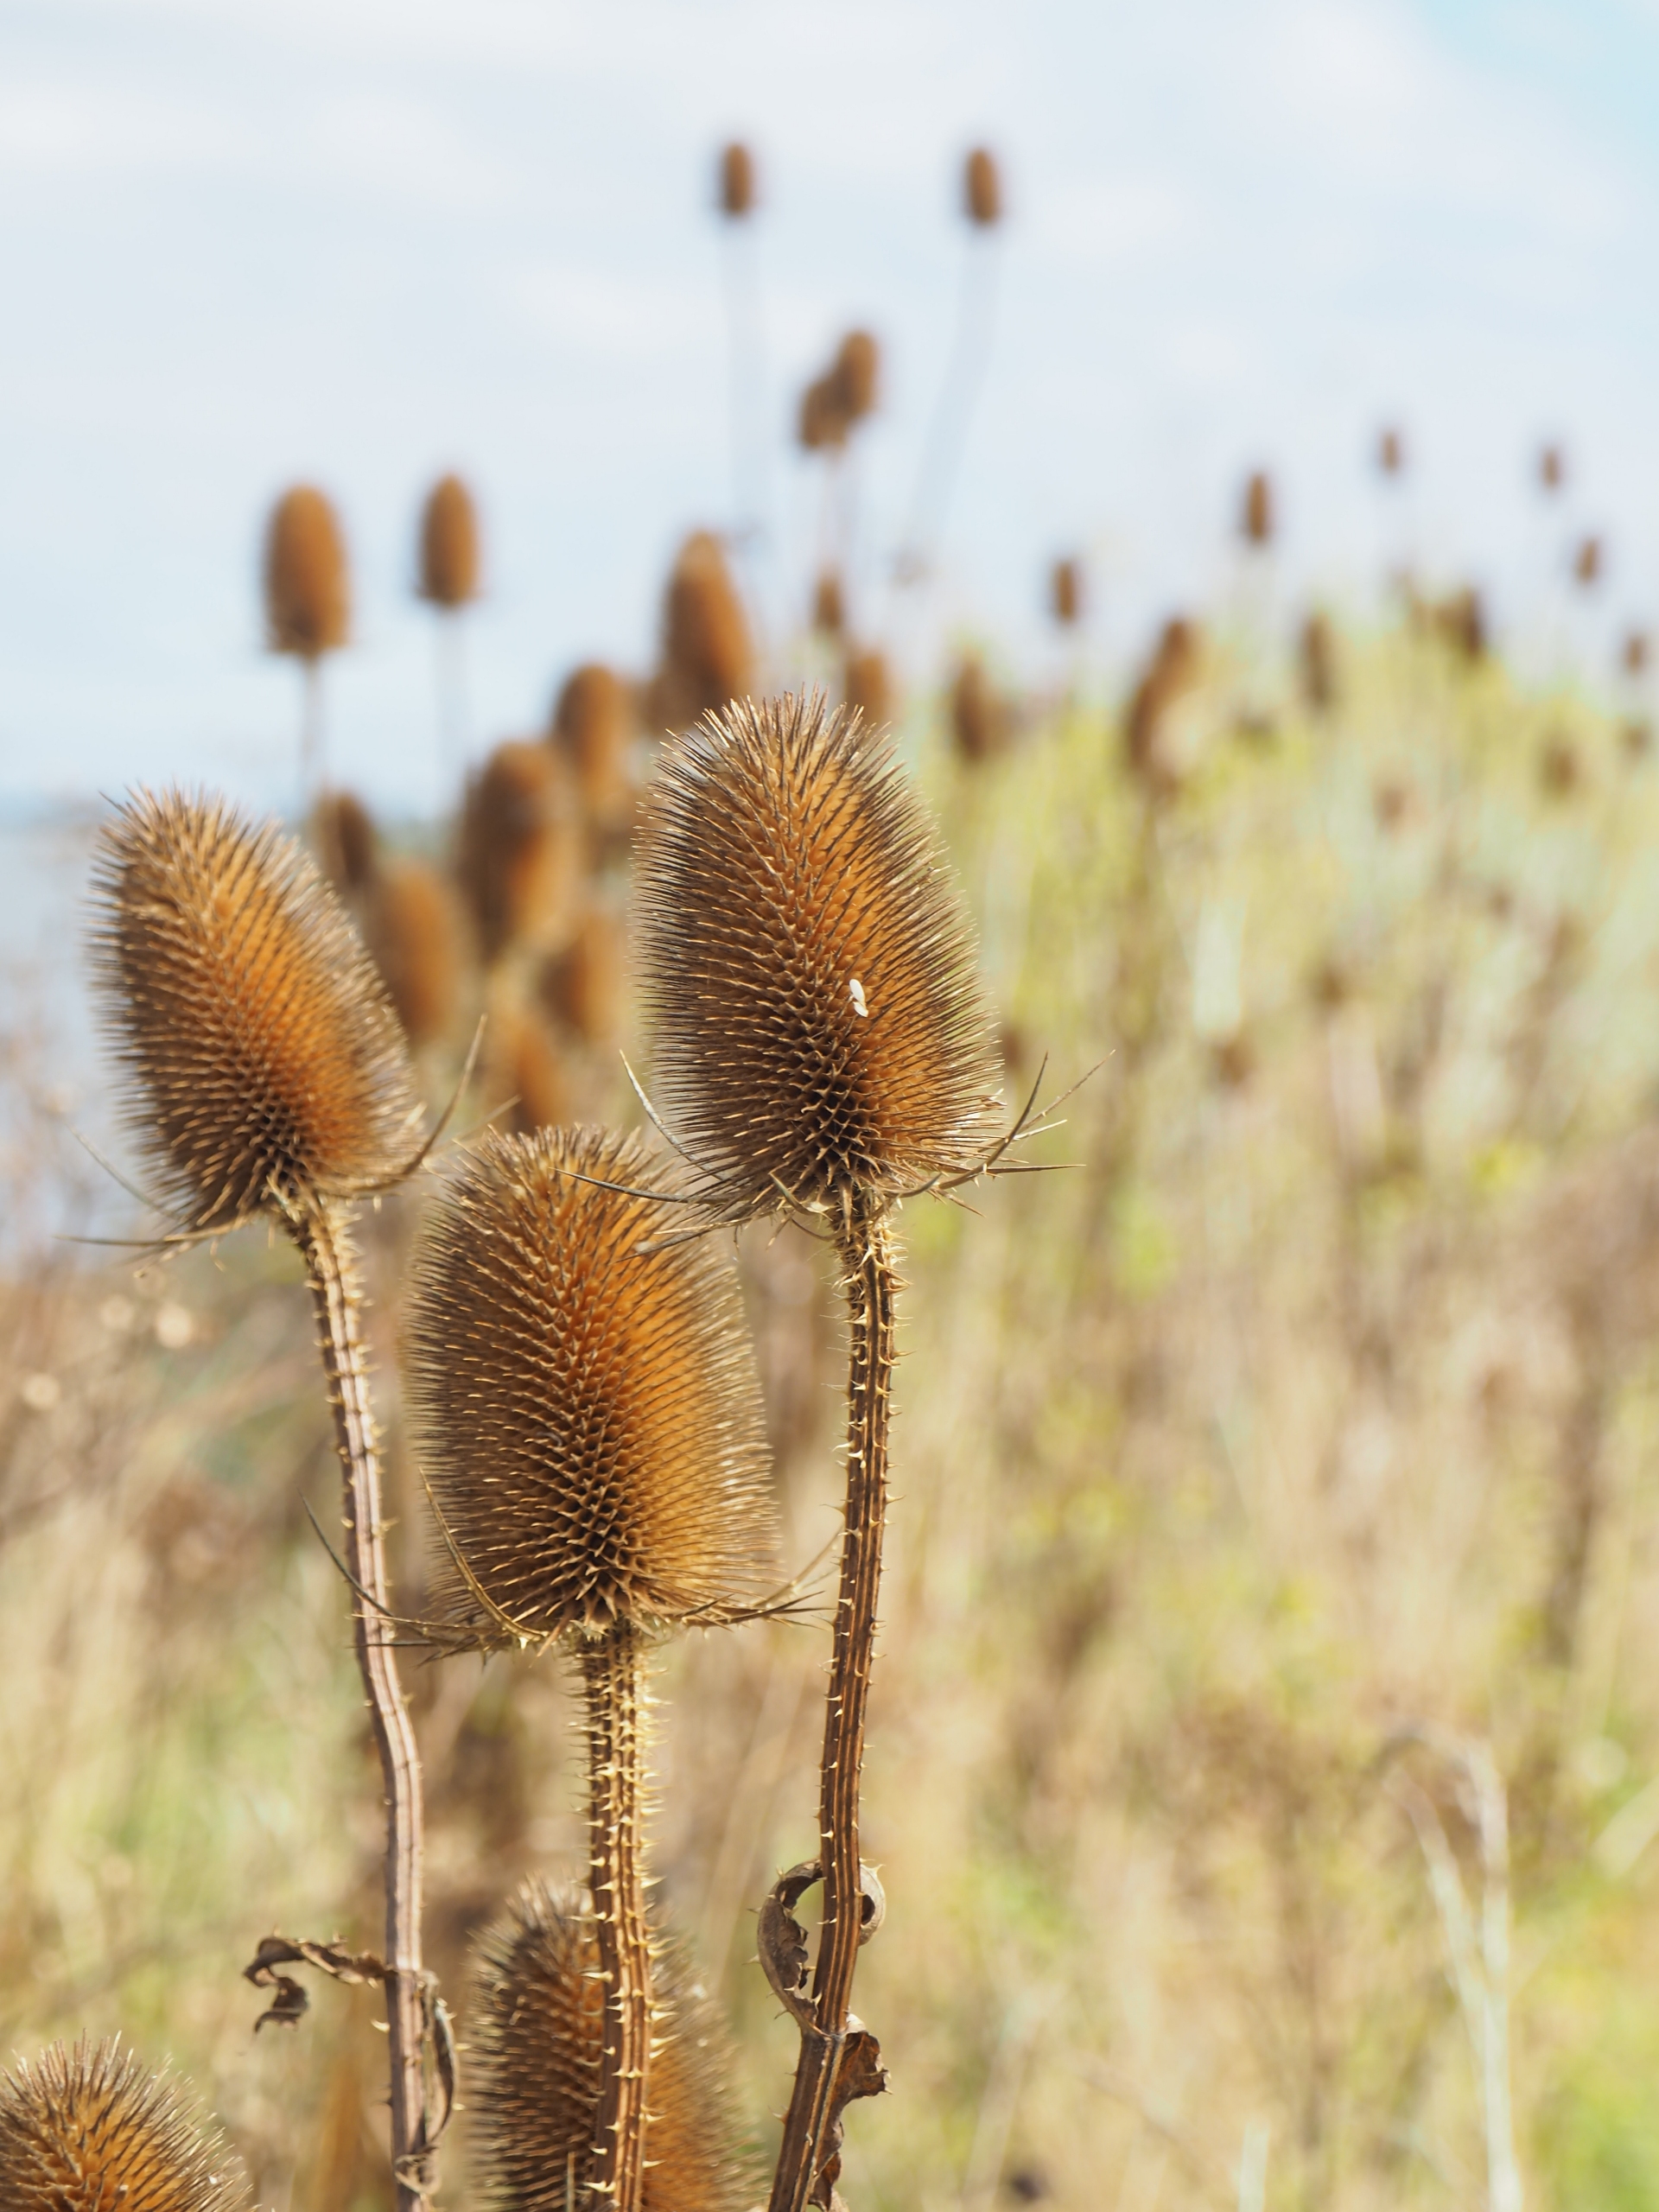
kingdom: Plantae
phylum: Tracheophyta
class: Magnoliopsida
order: Dipsacales
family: Caprifoliaceae
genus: Dipsacus
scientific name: Dipsacus fullonum
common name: Gærde-kartebolle
